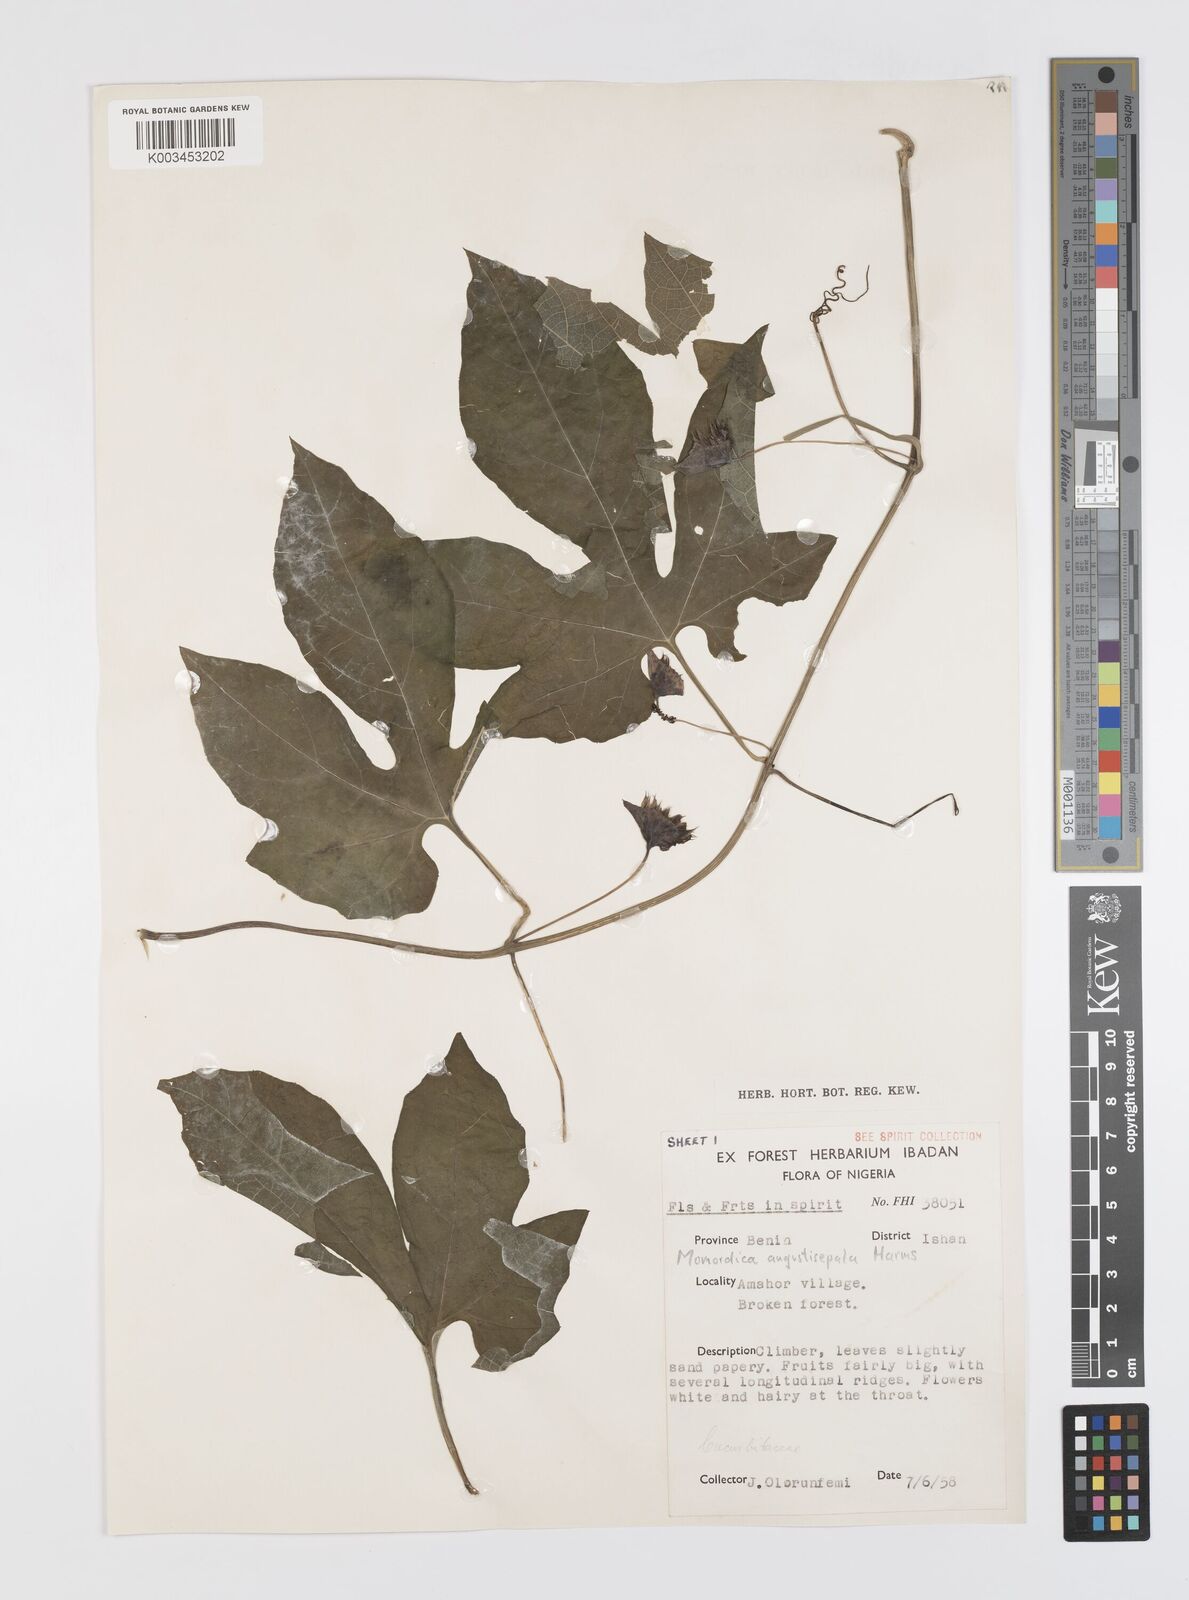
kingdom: Plantae
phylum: Tracheophyta
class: Magnoliopsida
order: Cucurbitales
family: Cucurbitaceae
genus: Momordica
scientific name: Momordica angustisepala
